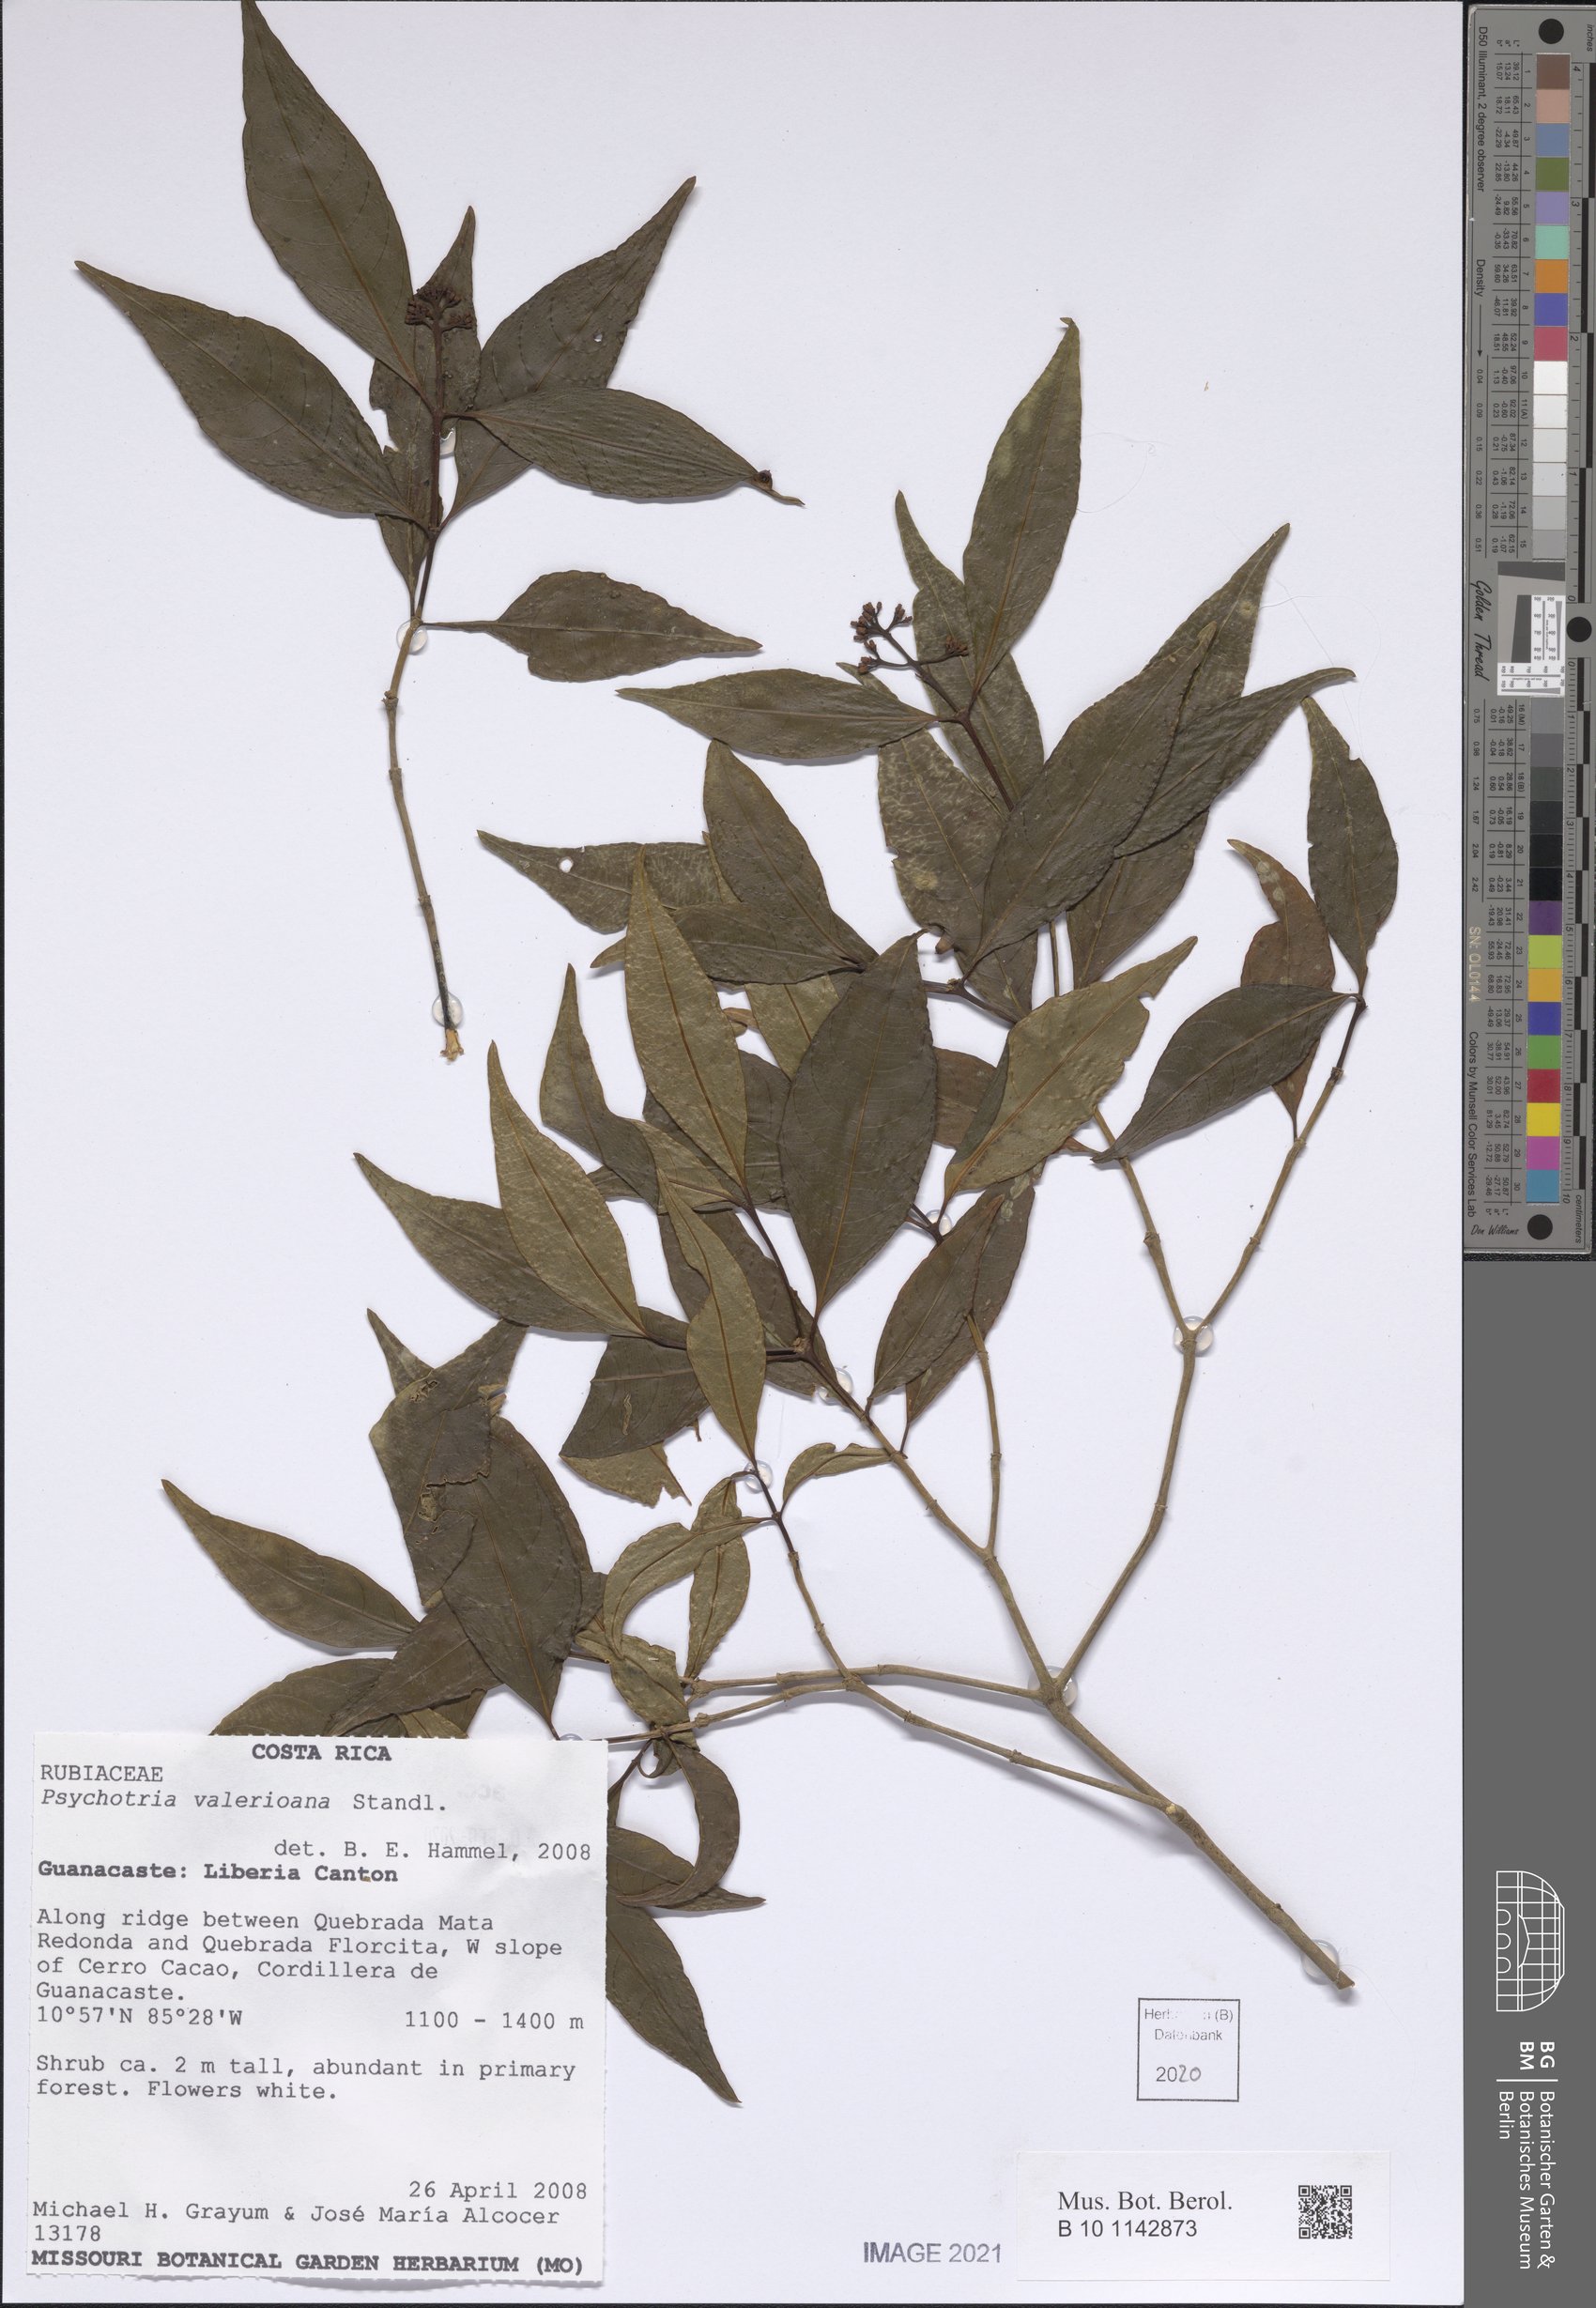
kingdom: Plantae
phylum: Tracheophyta
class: Magnoliopsida
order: Gentianales
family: Rubiaceae
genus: Palicourea
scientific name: Palicourea valeriana
